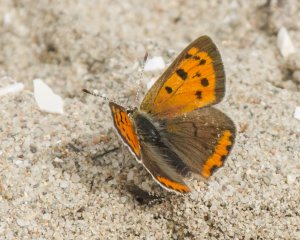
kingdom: Animalia
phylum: Arthropoda
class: Insecta
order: Lepidoptera
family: Lycaenidae
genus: Lycaena
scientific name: Lycaena phlaeas
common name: American Copper
